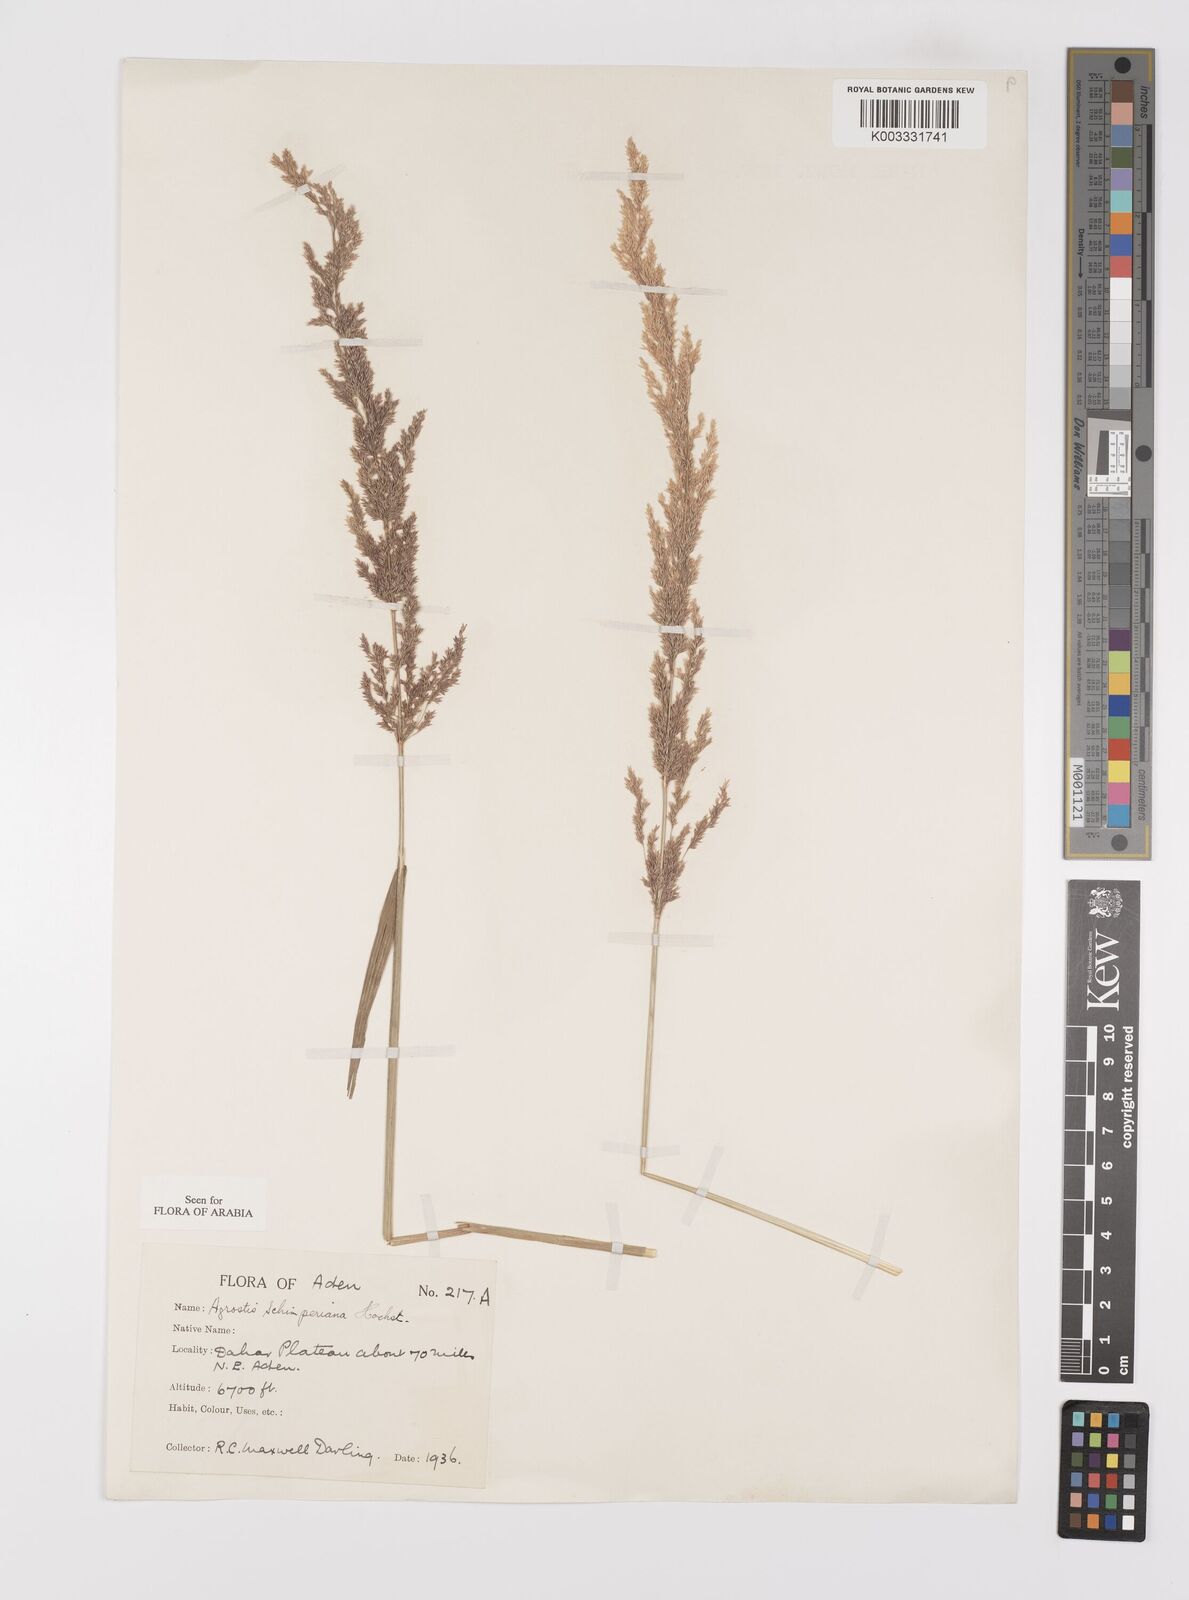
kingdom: Plantae
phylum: Tracheophyta
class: Liliopsida
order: Poales
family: Poaceae
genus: Polypogon
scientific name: Polypogon schimperianus
